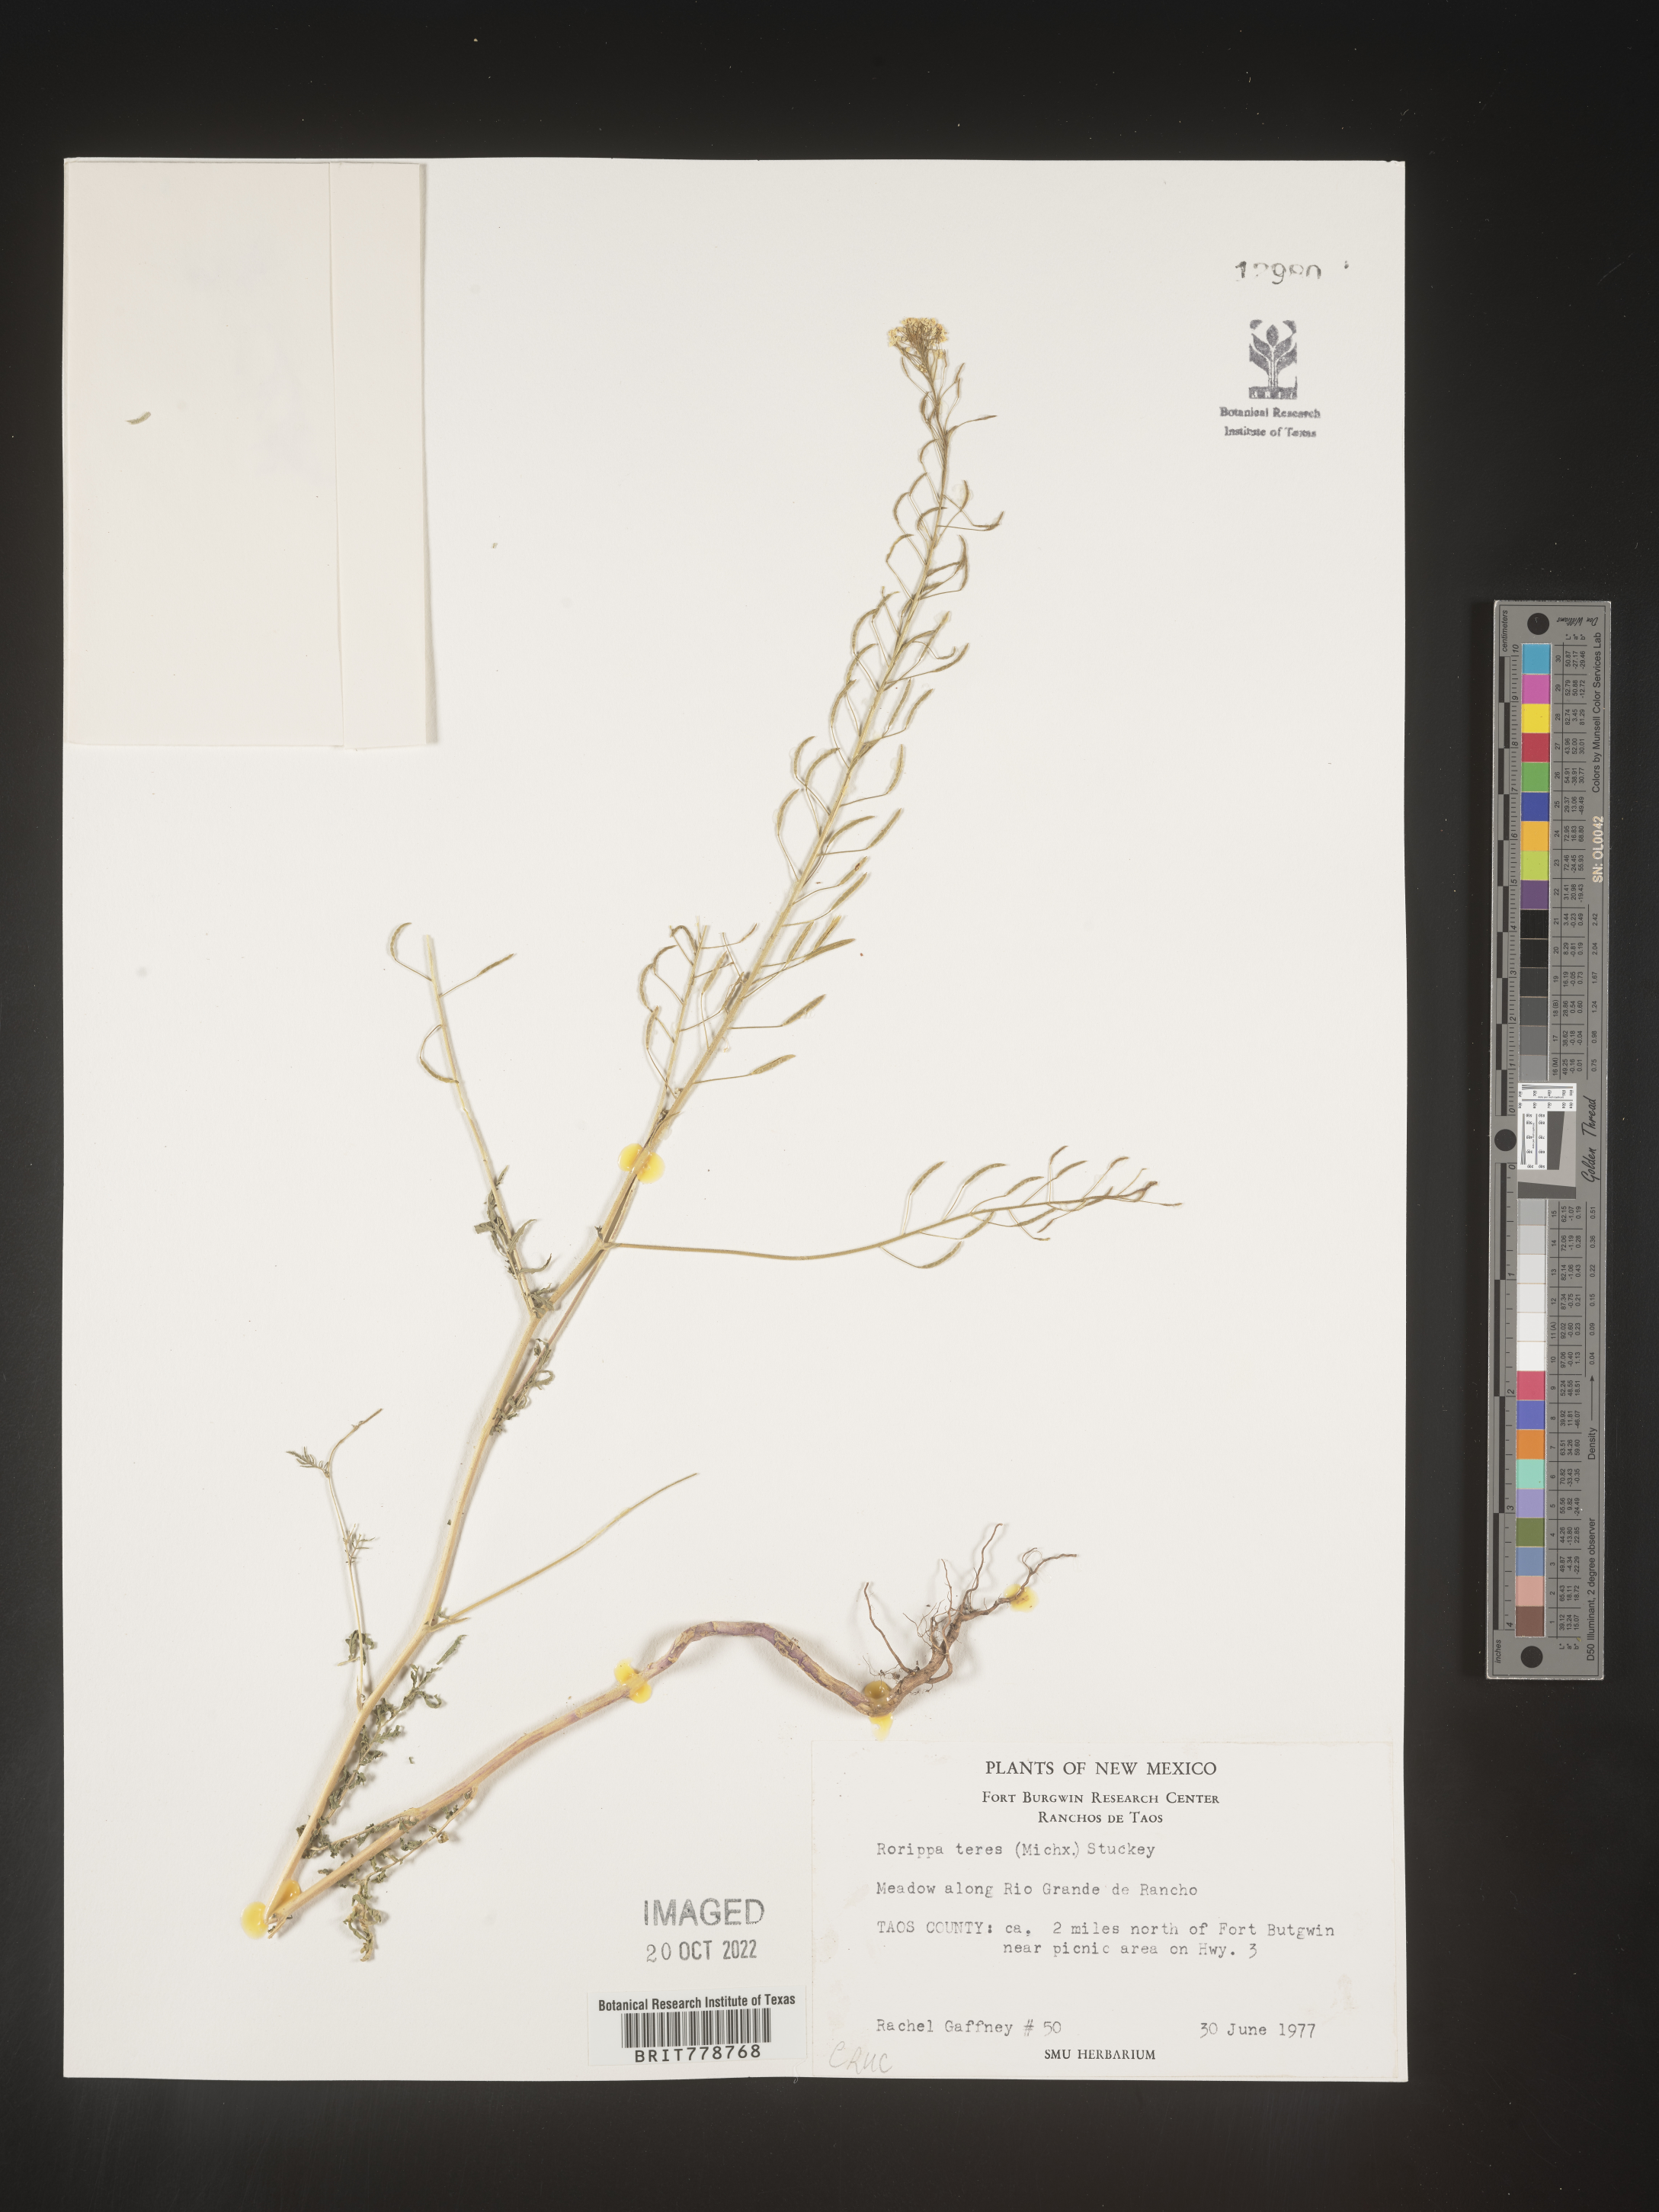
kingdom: Plantae
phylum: Tracheophyta
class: Magnoliopsida
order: Brassicales
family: Brassicaceae
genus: Rorippa
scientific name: Rorippa sylvestris
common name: Creeping yellowcress
